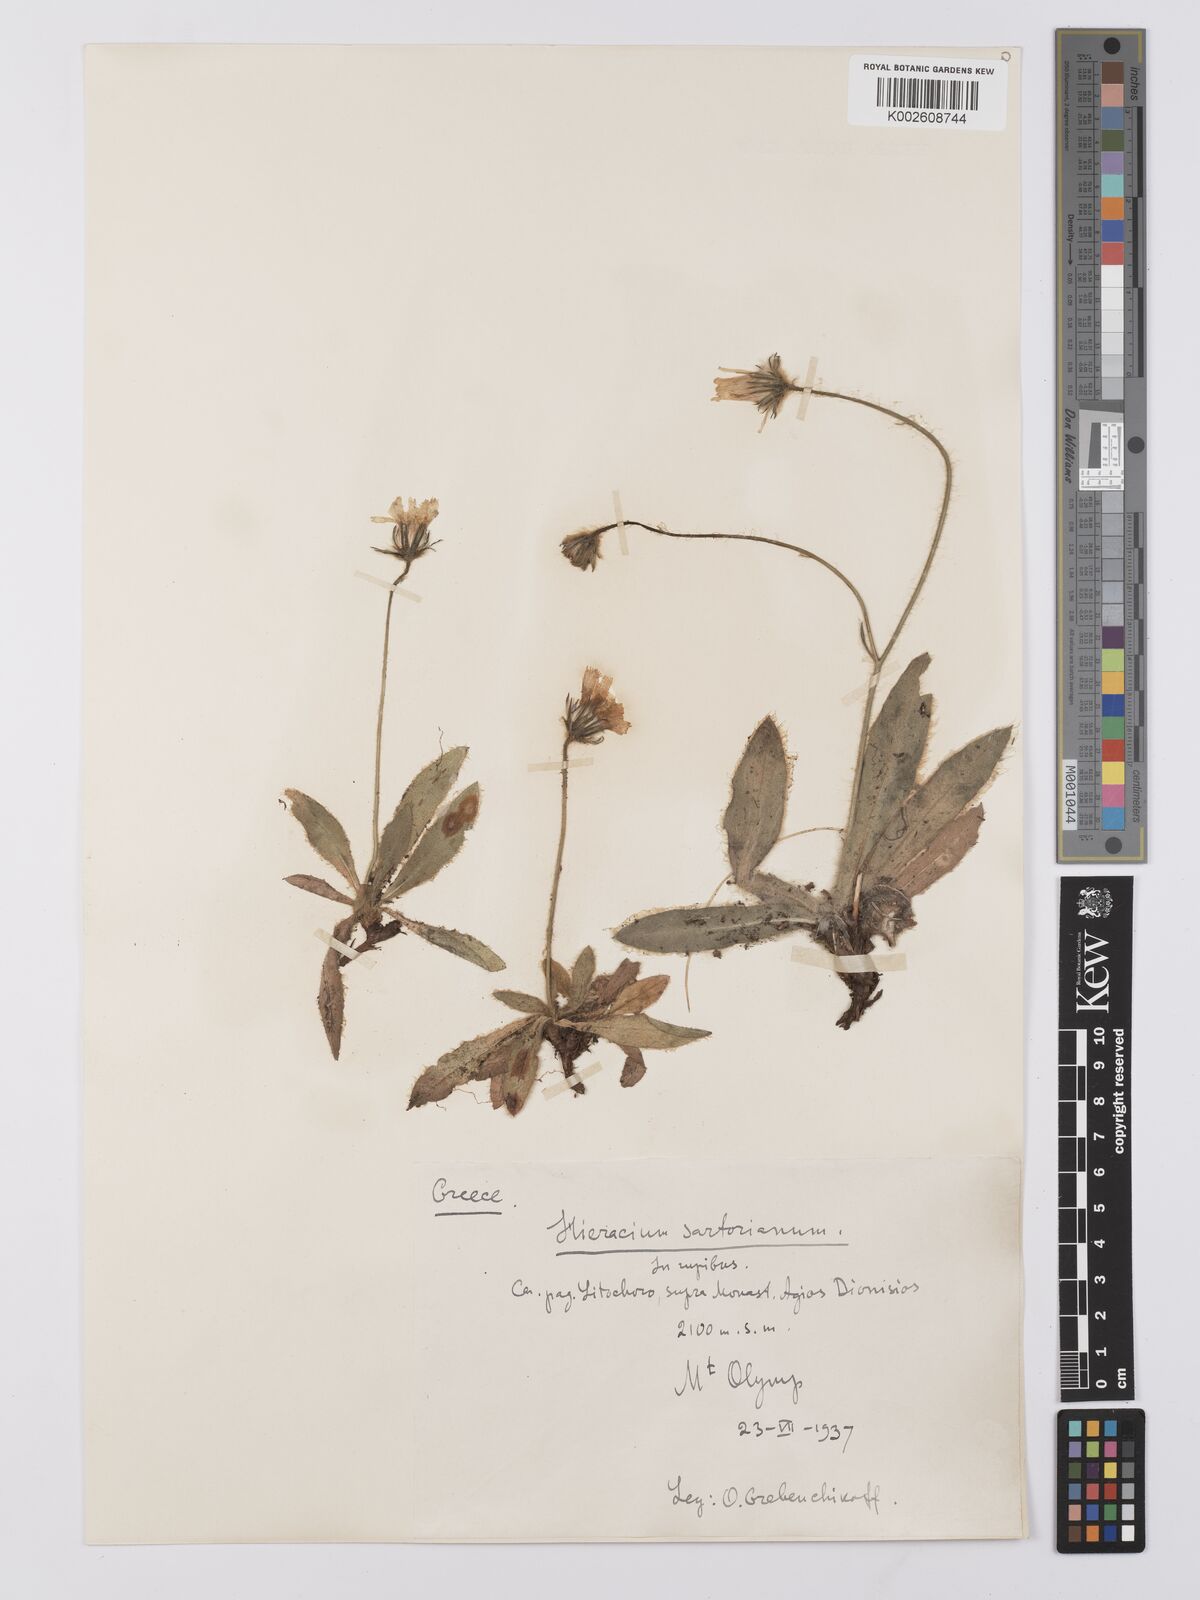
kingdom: Plantae
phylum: Tracheophyta
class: Magnoliopsida
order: Asterales
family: Asteraceae
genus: Hieracium
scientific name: Hieracium sartorianum
